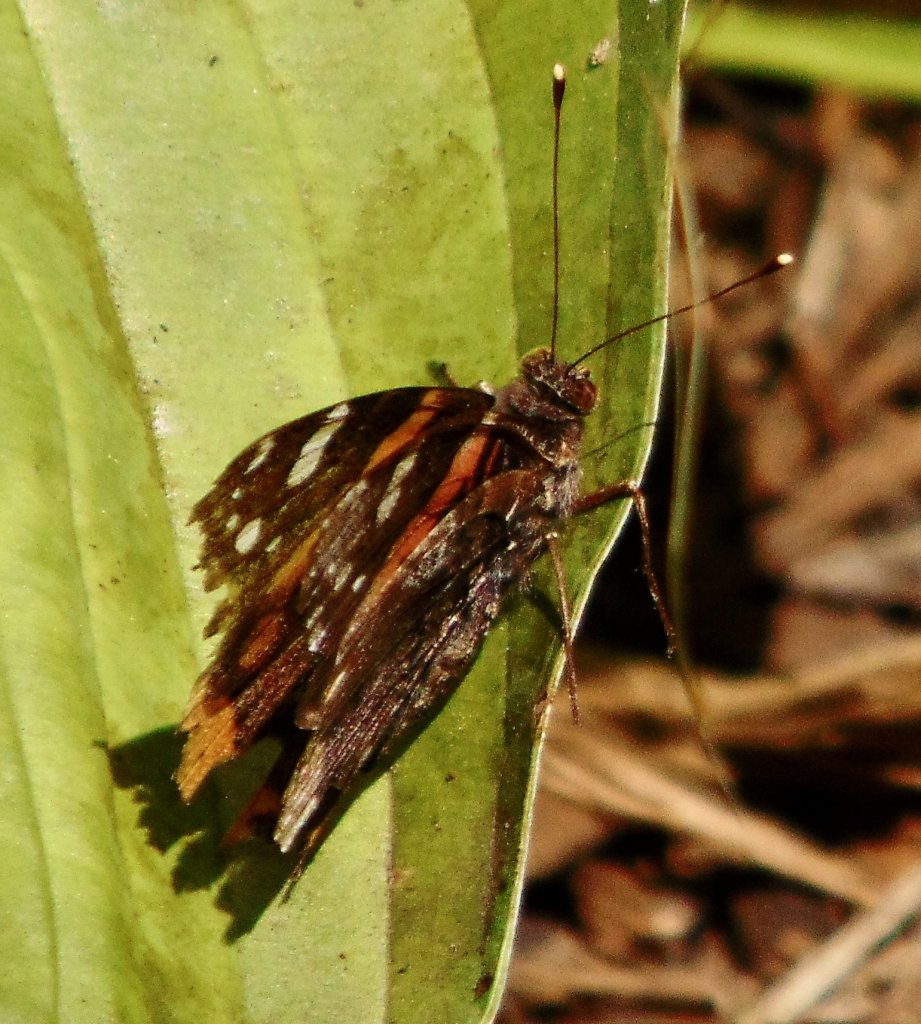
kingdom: Animalia
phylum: Arthropoda
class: Insecta
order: Lepidoptera
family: Nymphalidae
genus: Vanessa
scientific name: Vanessa atalanta
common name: Red Admiral
